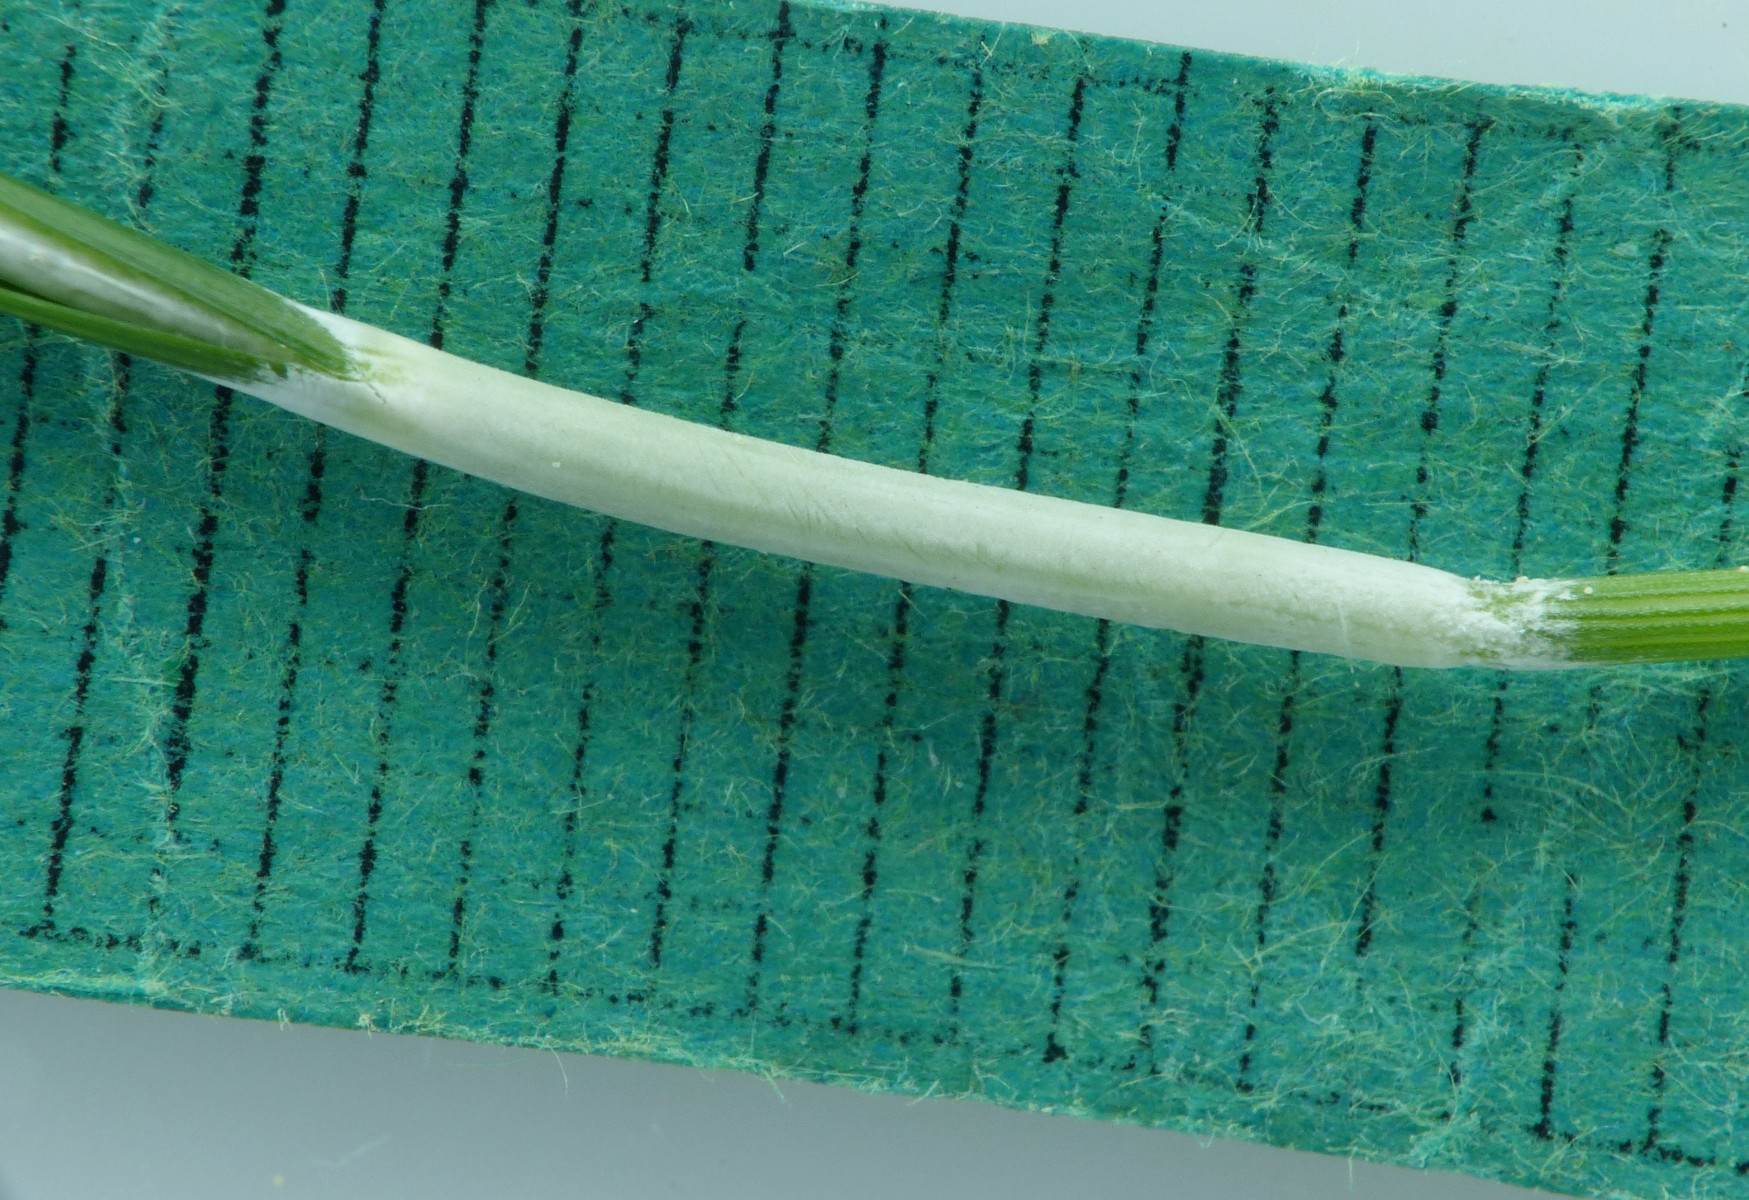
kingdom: Fungi
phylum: Ascomycota
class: Sordariomycetes
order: Hypocreales
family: Clavicipitaceae
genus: Epichloe
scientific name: Epichloe typhina
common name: almindelig kernerør
